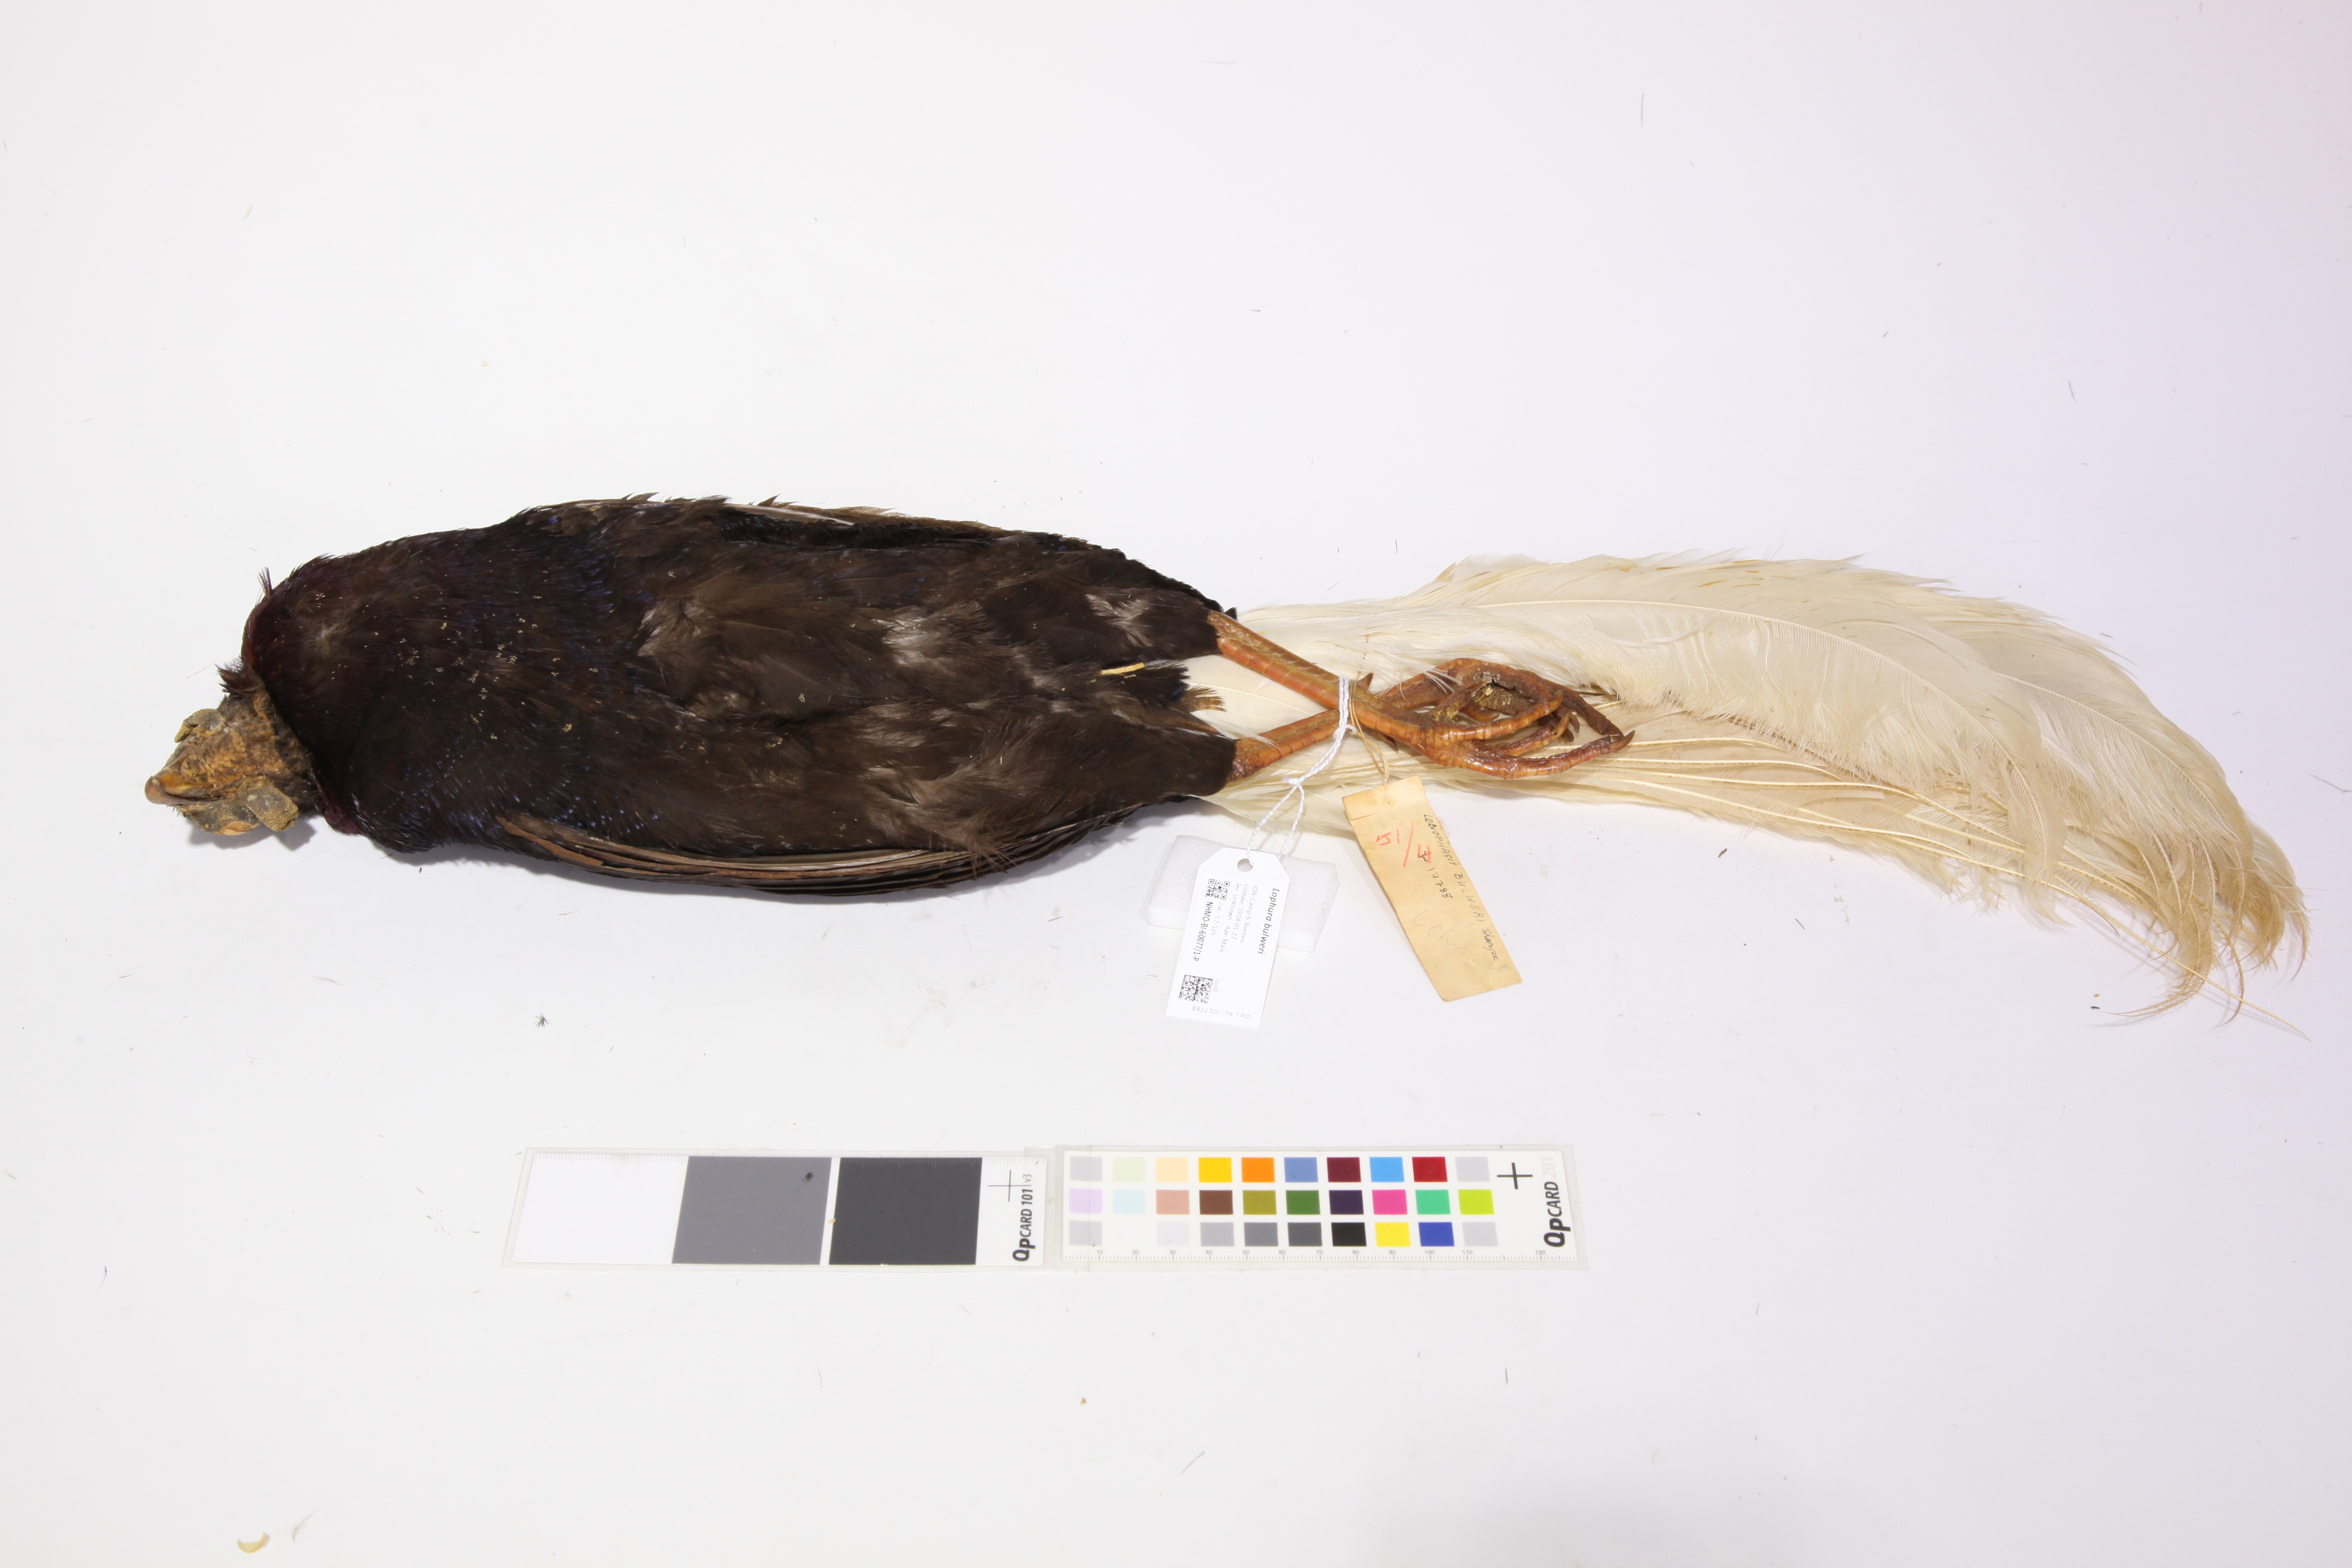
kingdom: Animalia
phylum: Chordata
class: Aves
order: Galliformes
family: Phasianidae
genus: Lophura
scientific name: Lophura bulweri
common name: Bulwer's pheasant
